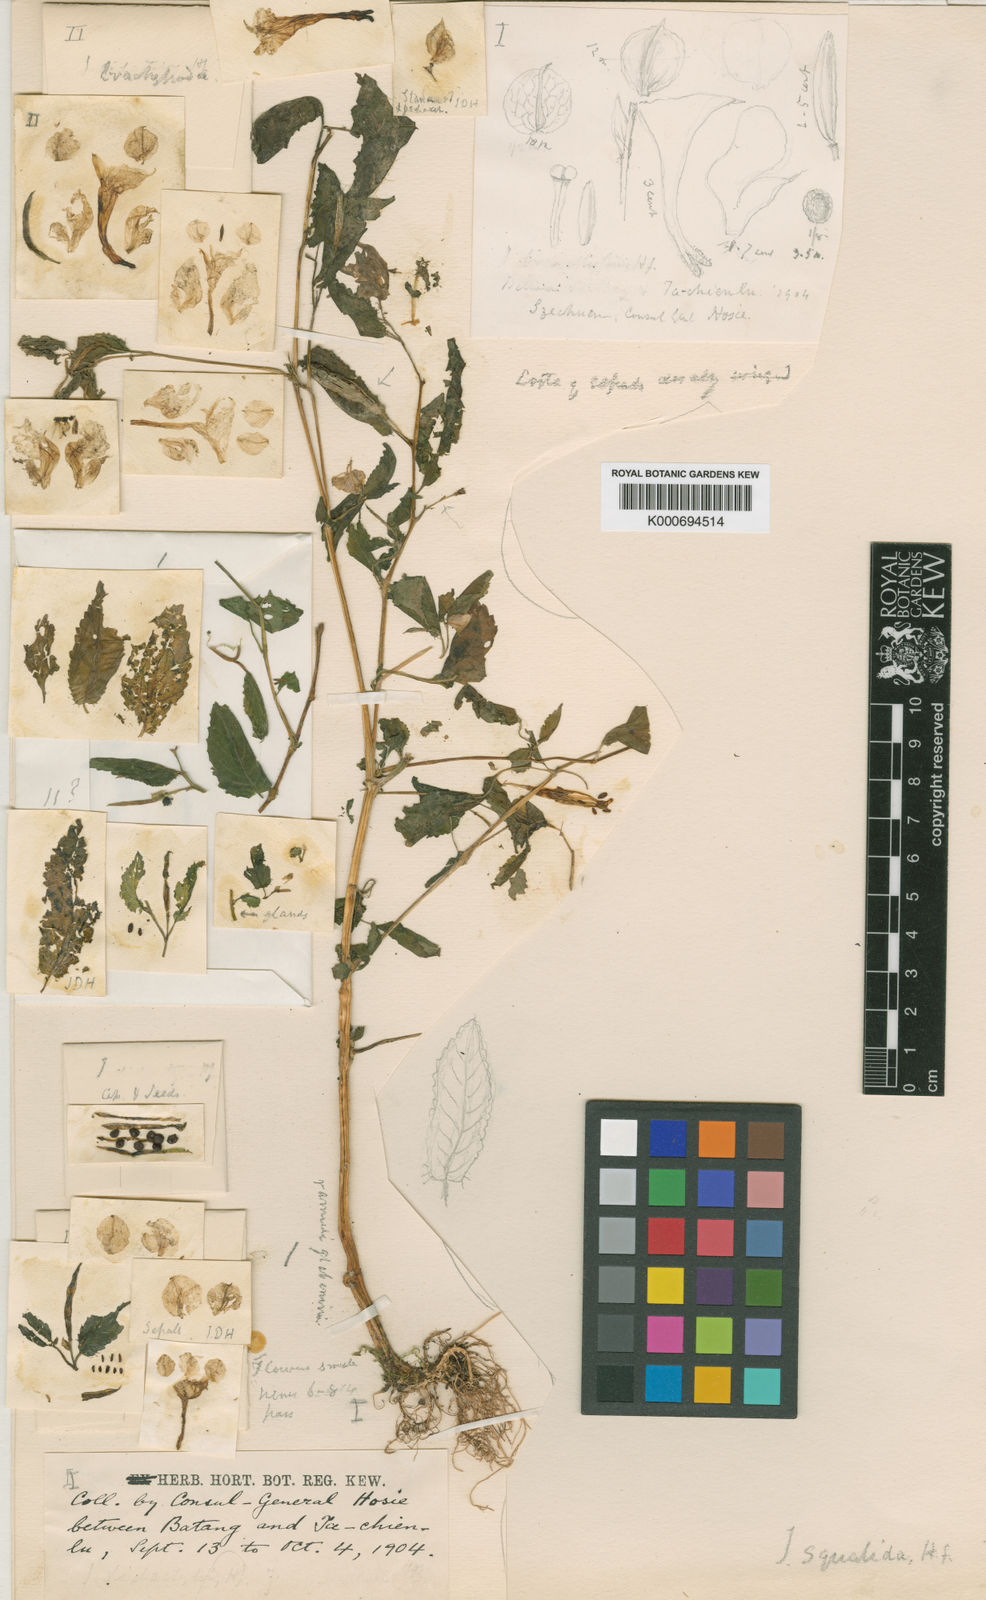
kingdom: Plantae
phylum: Tracheophyta
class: Magnoliopsida
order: Ericales
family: Balsaminaceae
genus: Impatiens
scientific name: Impatiens
